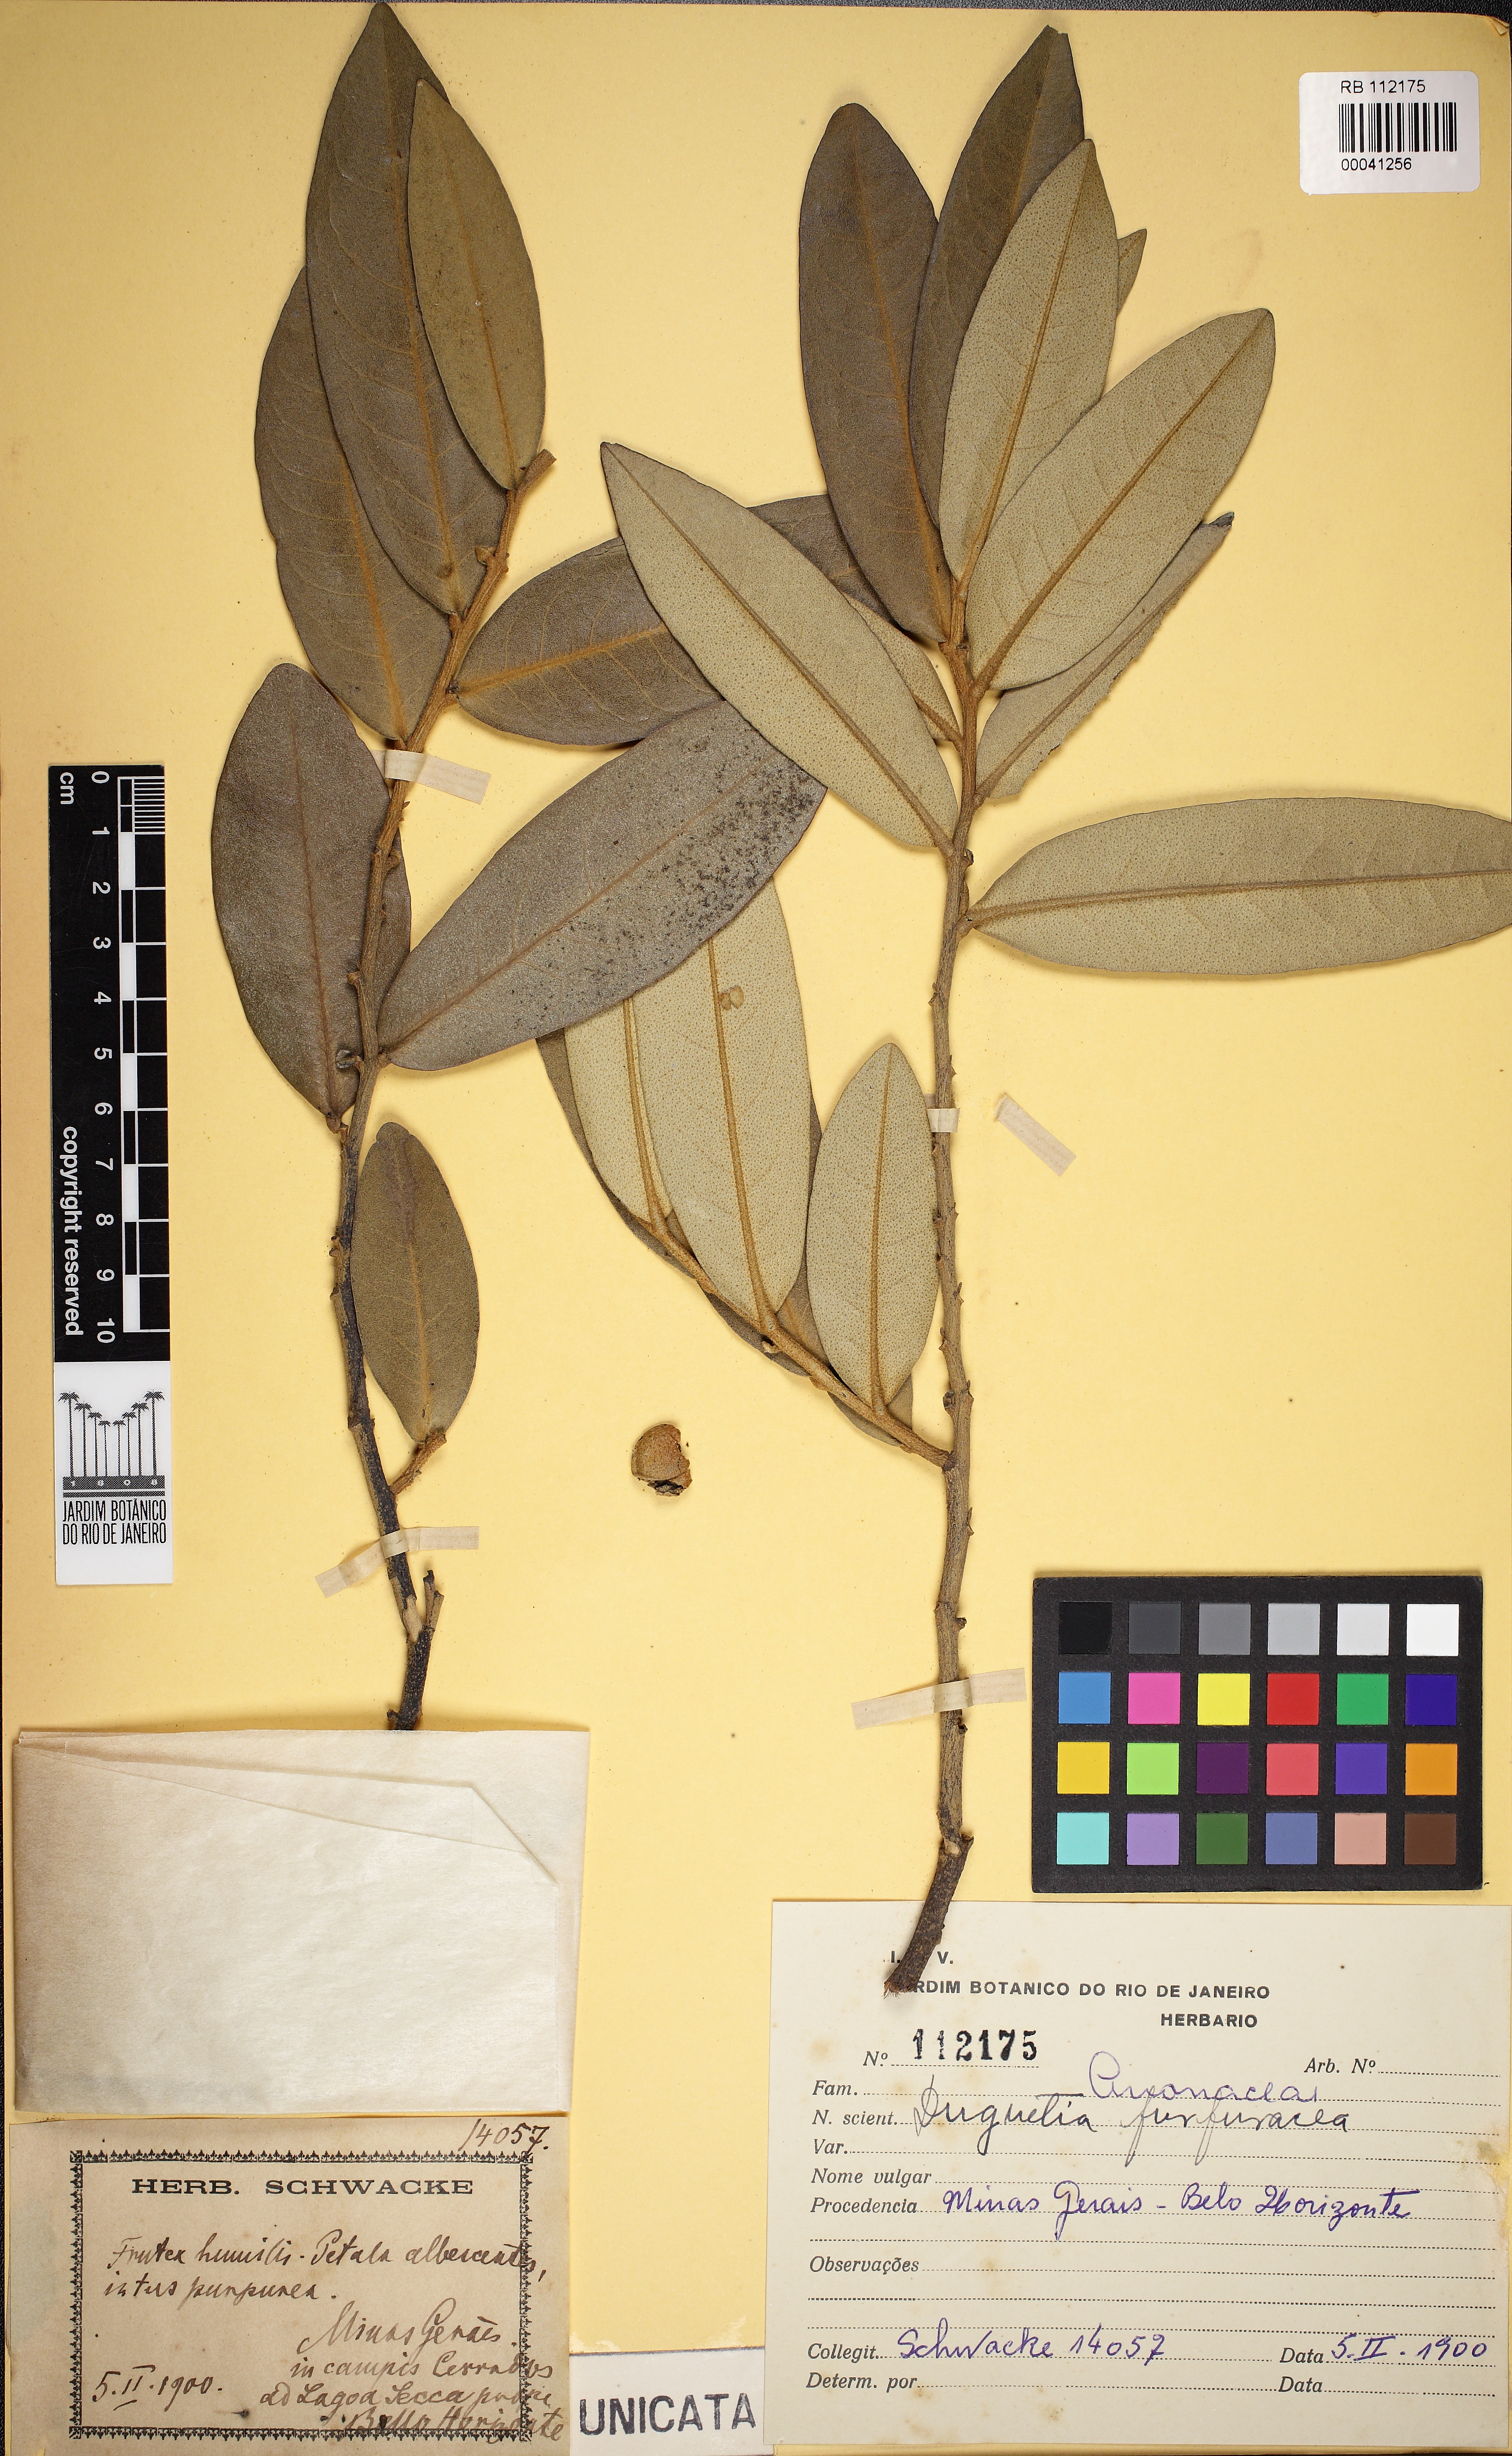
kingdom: Plantae
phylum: Tracheophyta
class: Magnoliopsida
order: Magnoliales
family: Annonaceae
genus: Duguetia
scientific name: Duguetia furfuracea
